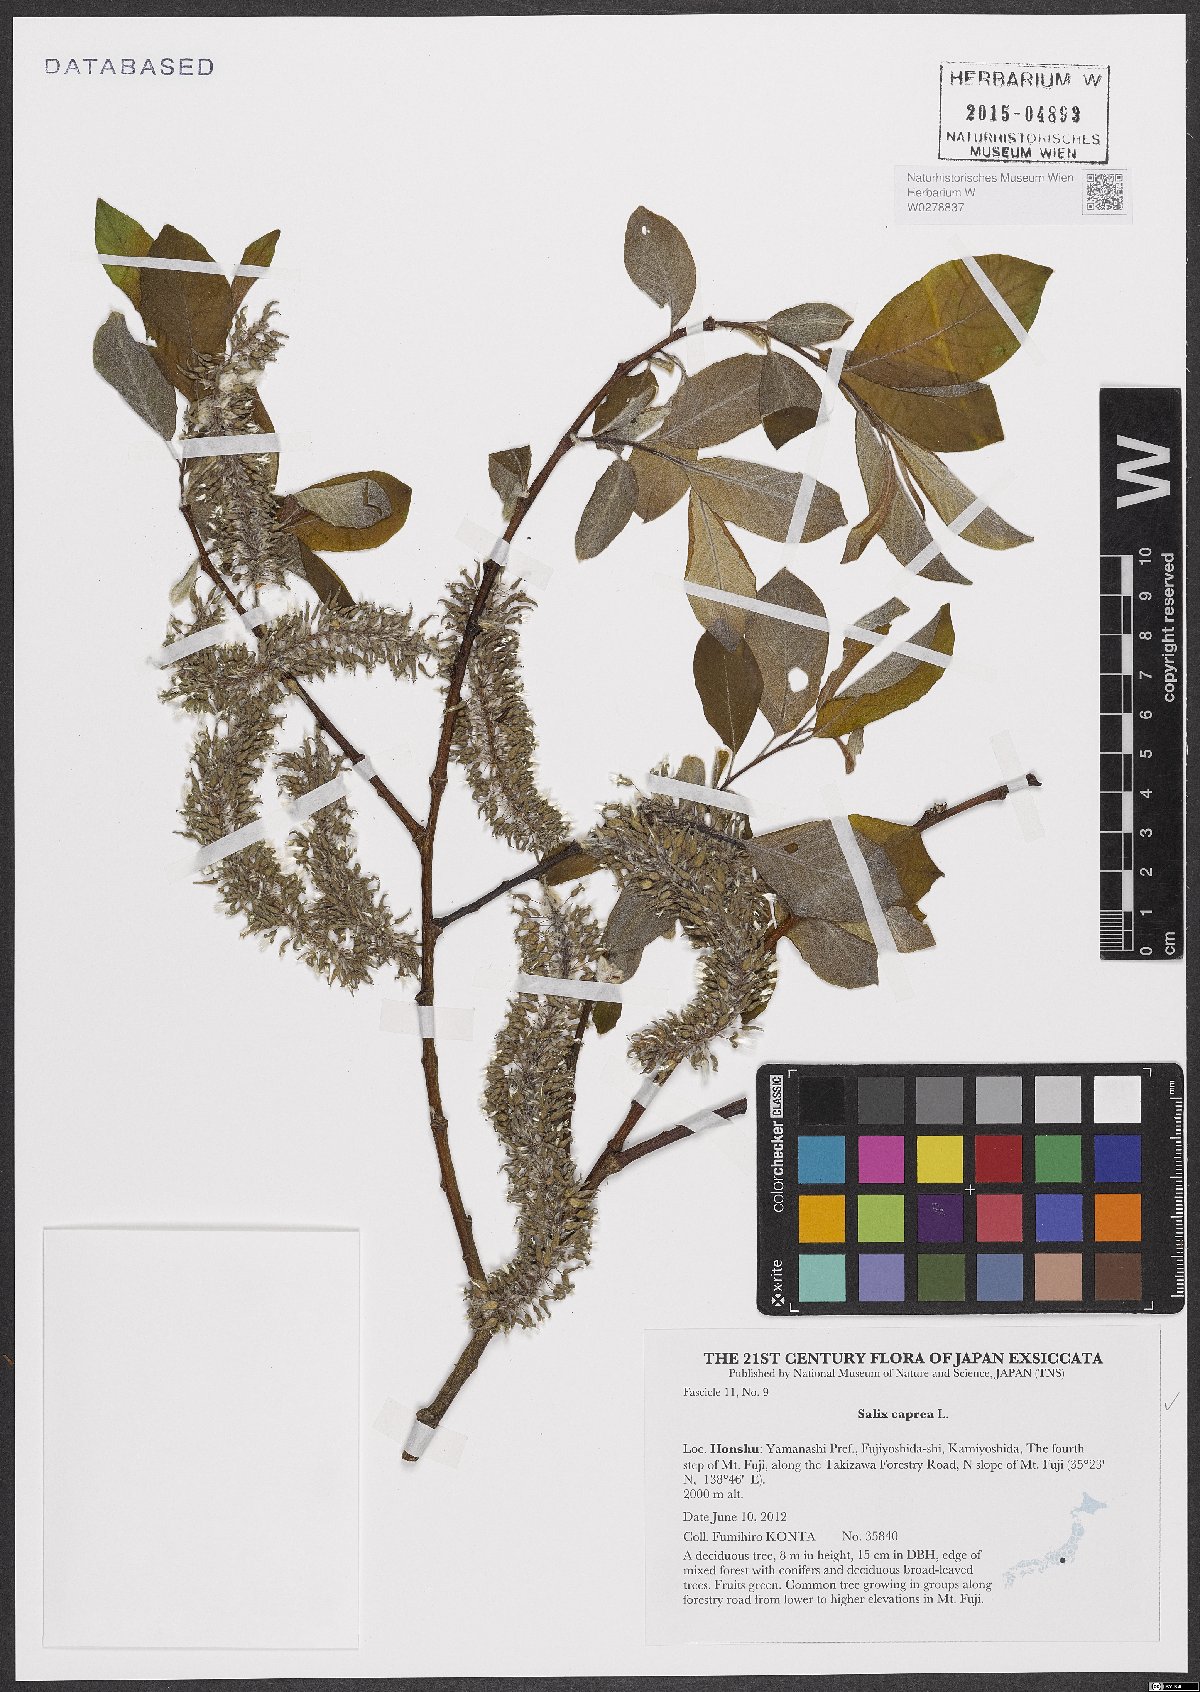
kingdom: Plantae
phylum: Tracheophyta
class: Magnoliopsida
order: Malpighiales
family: Salicaceae
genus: Salix
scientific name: Salix caprea
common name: Goat willow
